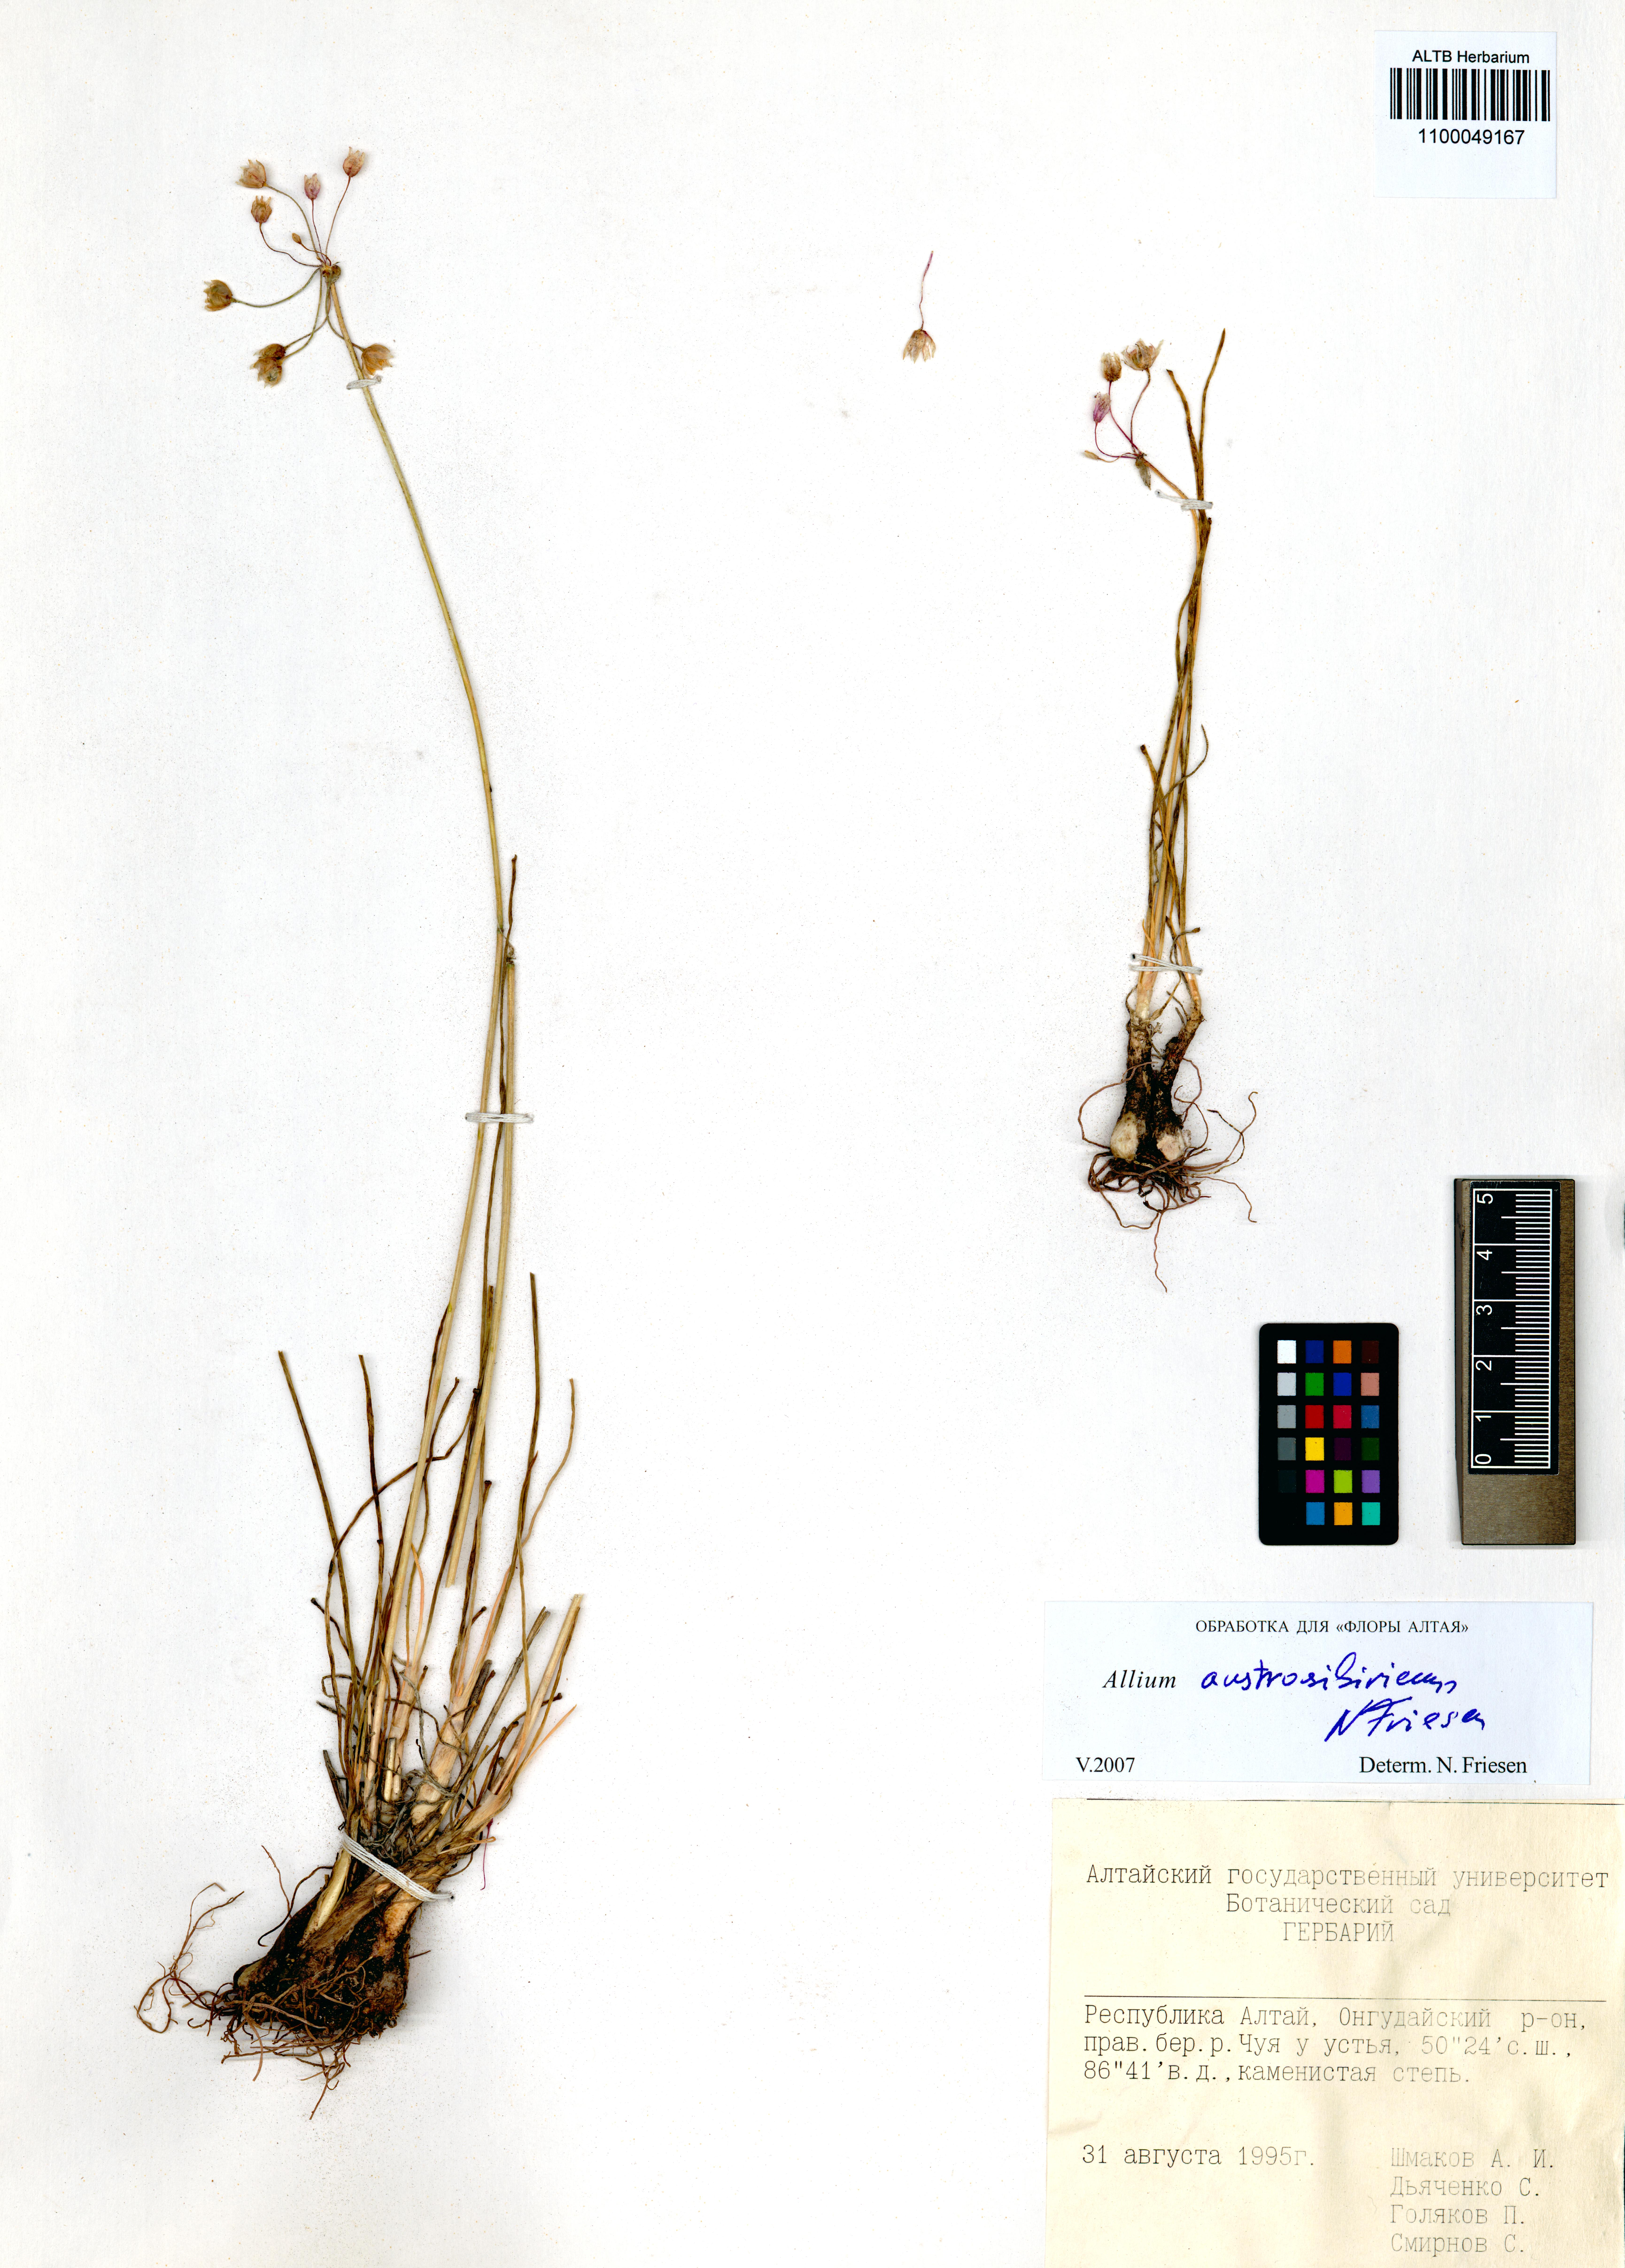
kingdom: Plantae
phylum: Tracheophyta
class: Liliopsida
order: Asparagales
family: Amaryllidaceae
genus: Allium
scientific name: Allium austrosibiricum
